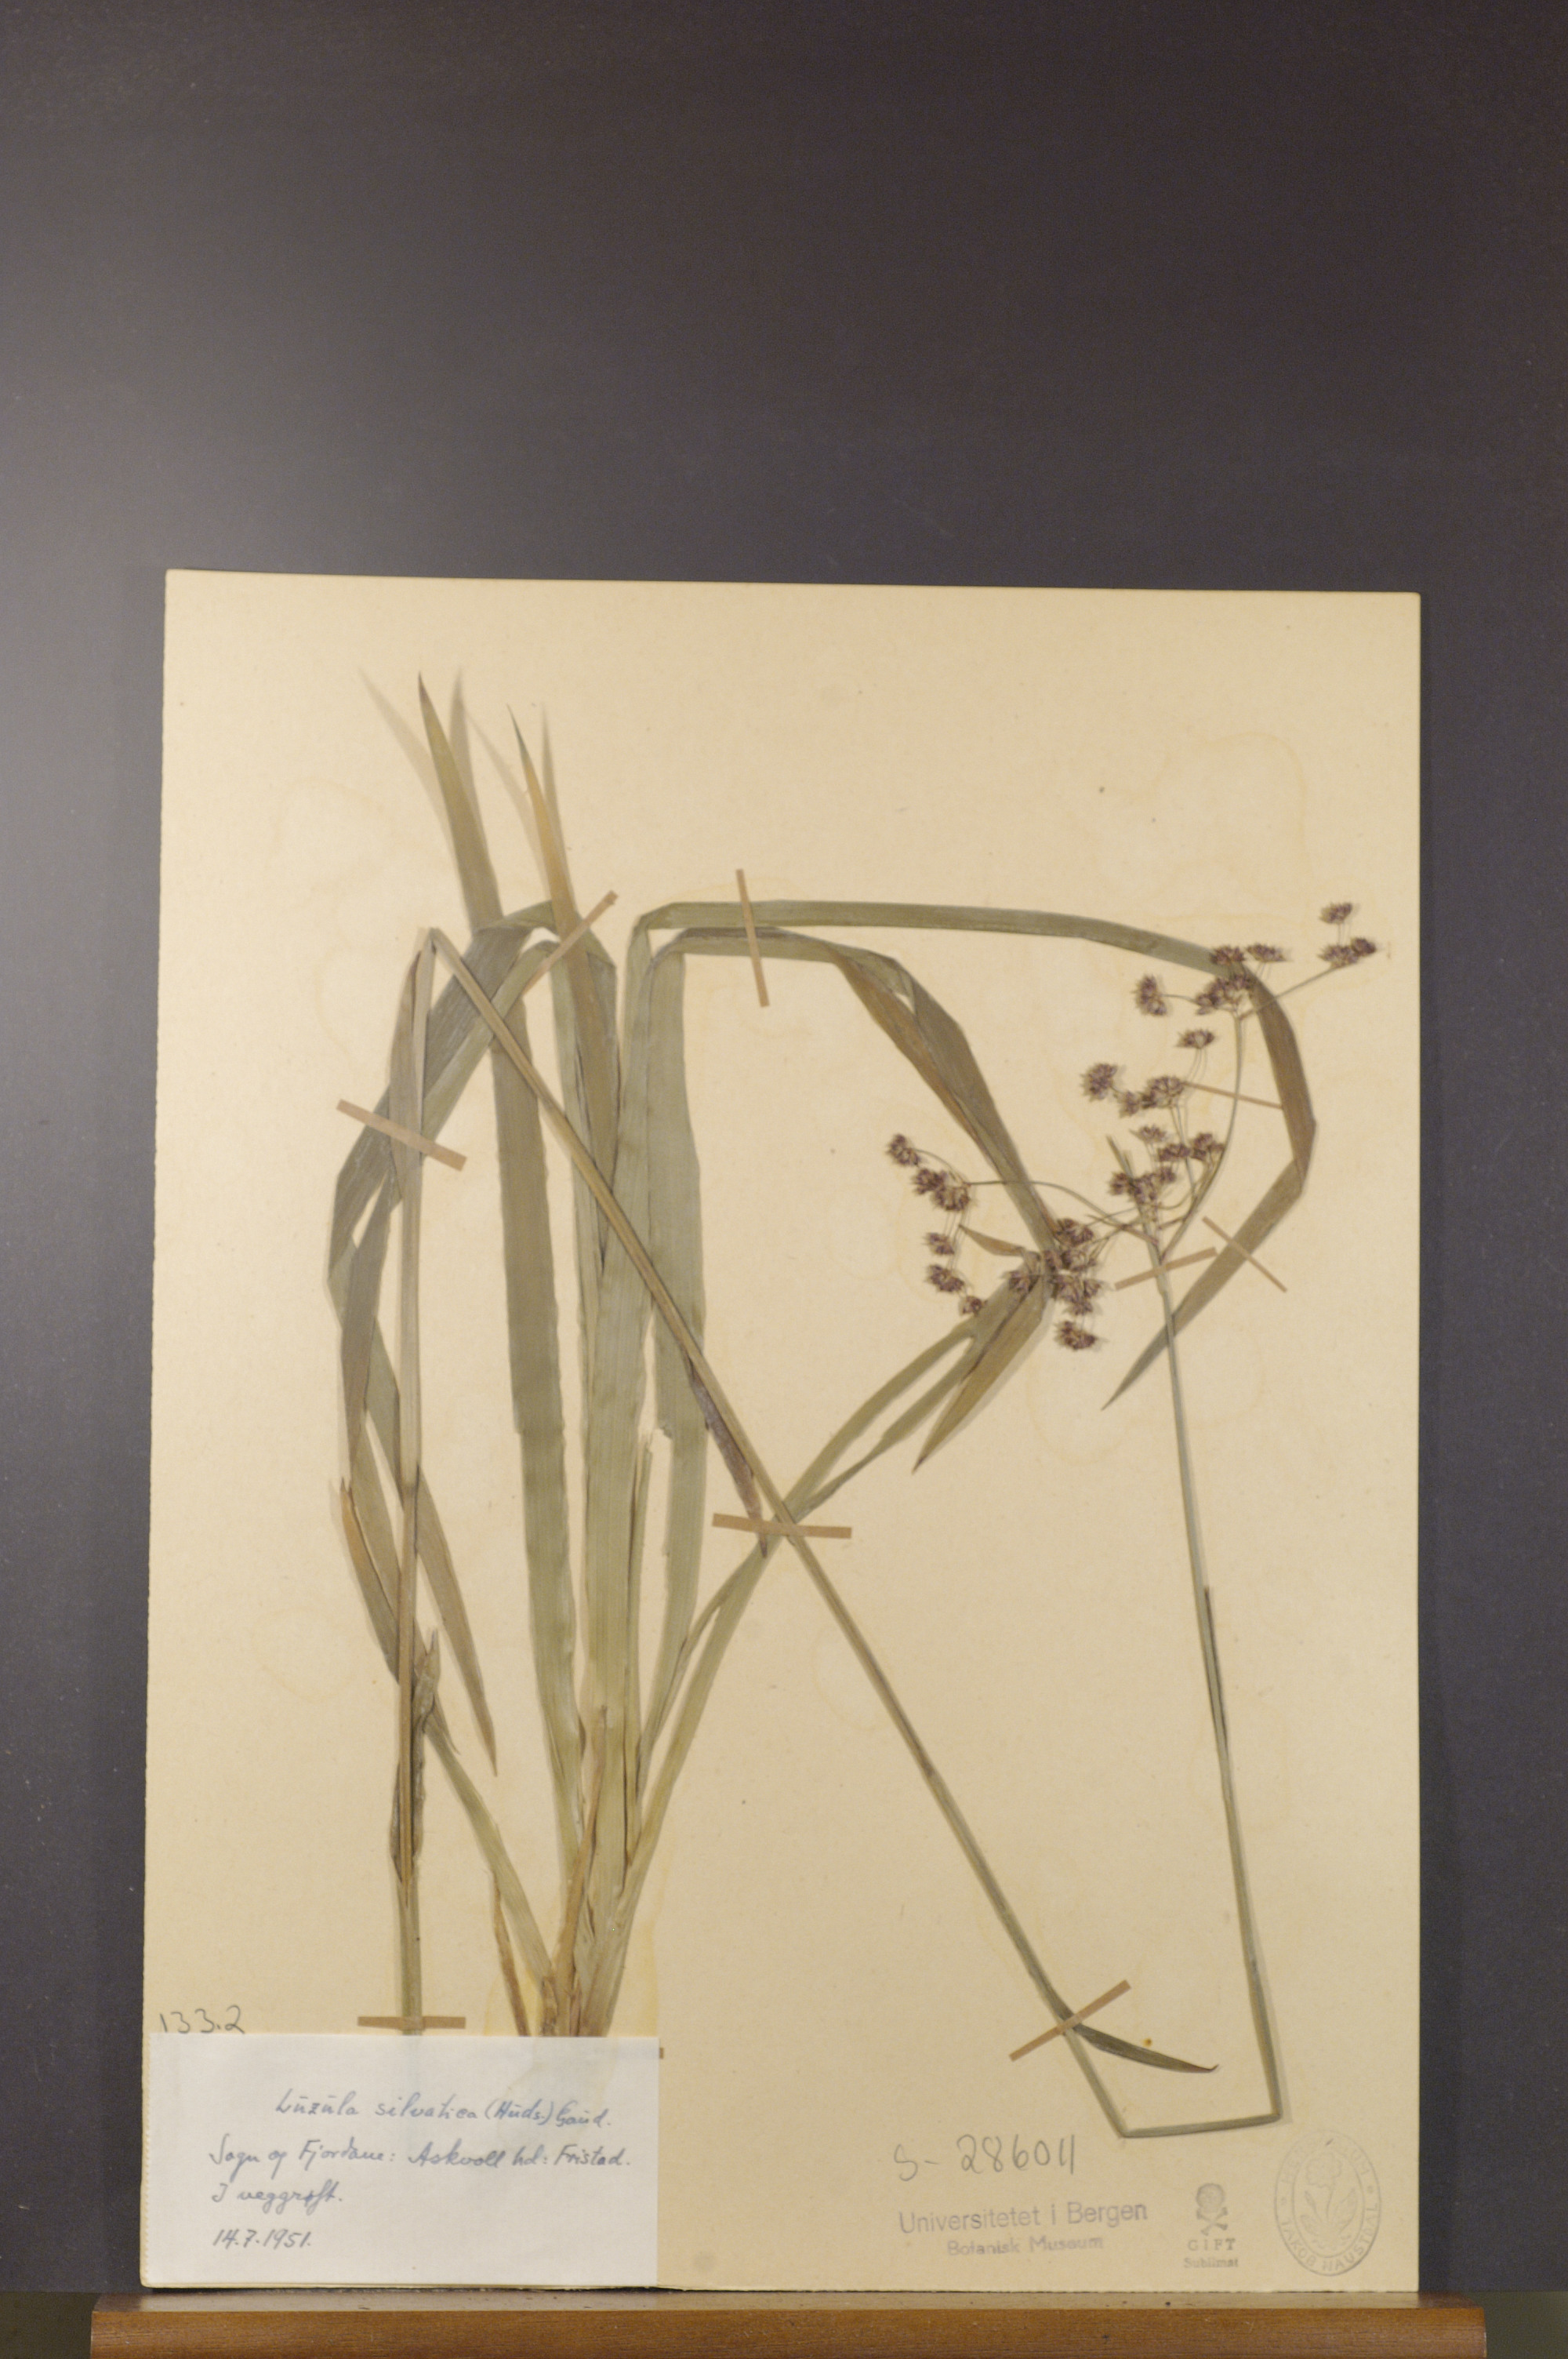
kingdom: Plantae
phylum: Tracheophyta
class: Liliopsida
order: Poales
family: Juncaceae
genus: Luzula
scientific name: Luzula sylvatica
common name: Great wood-rush
